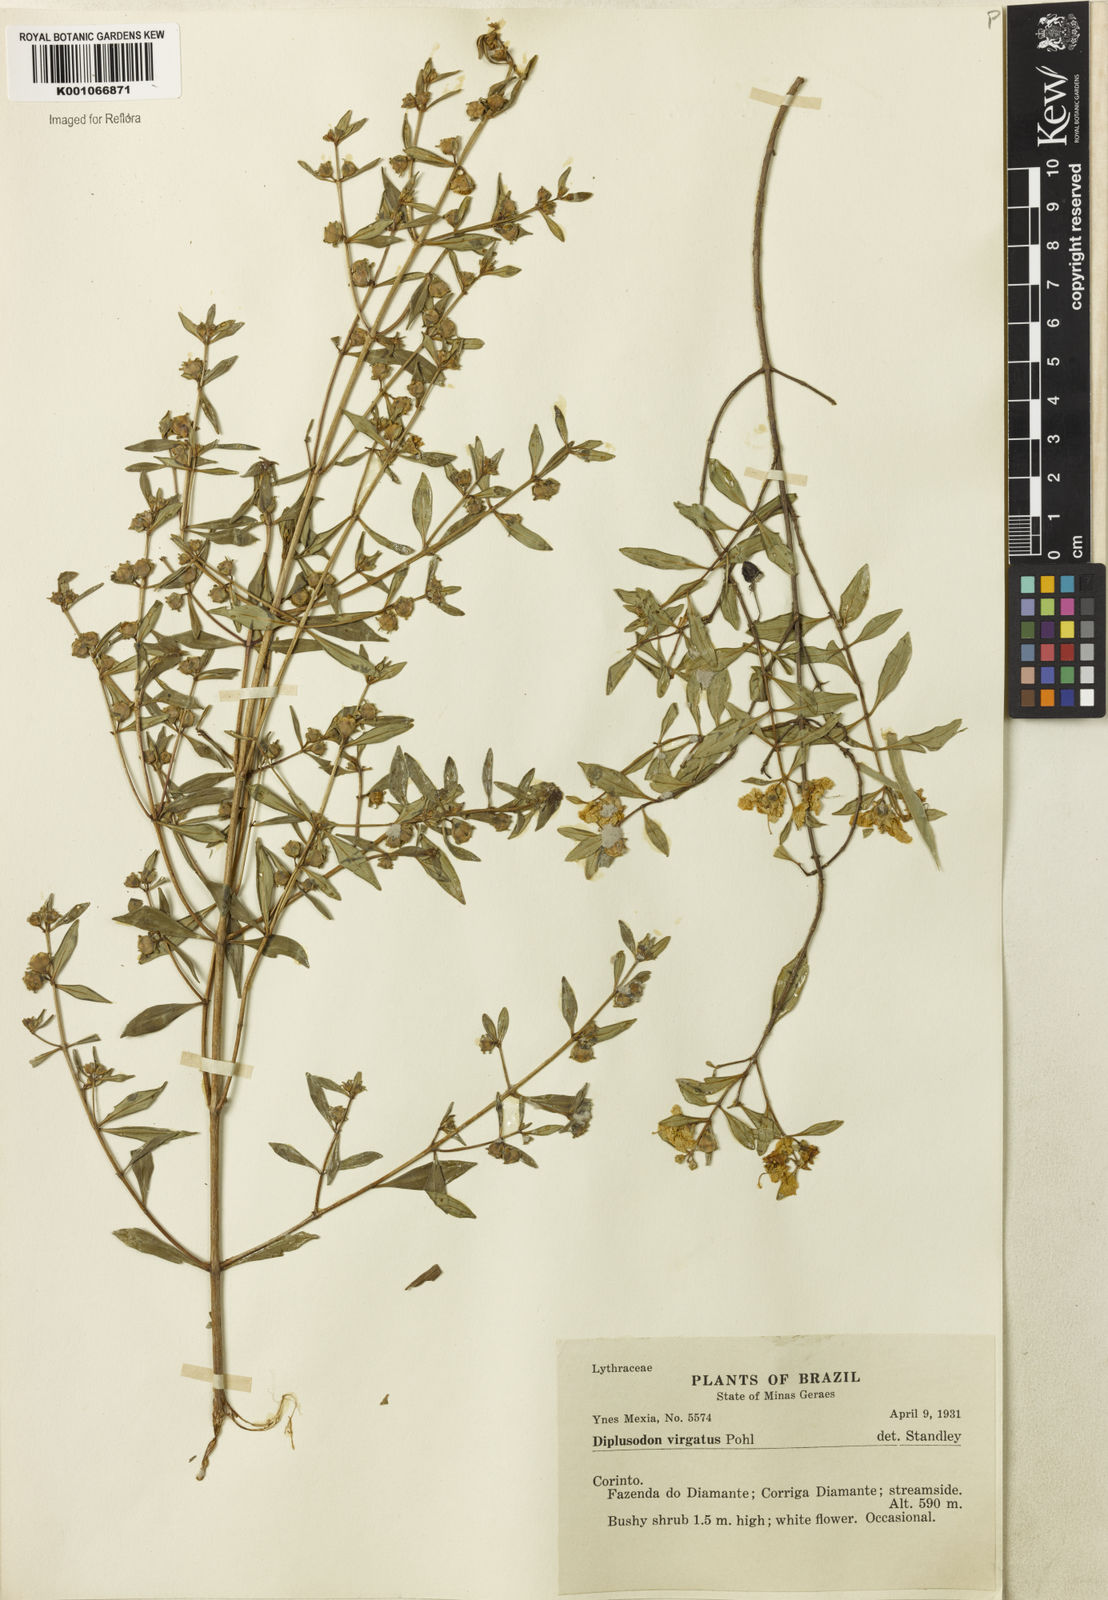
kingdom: Plantae
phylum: Tracheophyta
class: Magnoliopsida
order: Myrtales
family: Lythraceae
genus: Diplusodon
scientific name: Diplusodon virgatus
